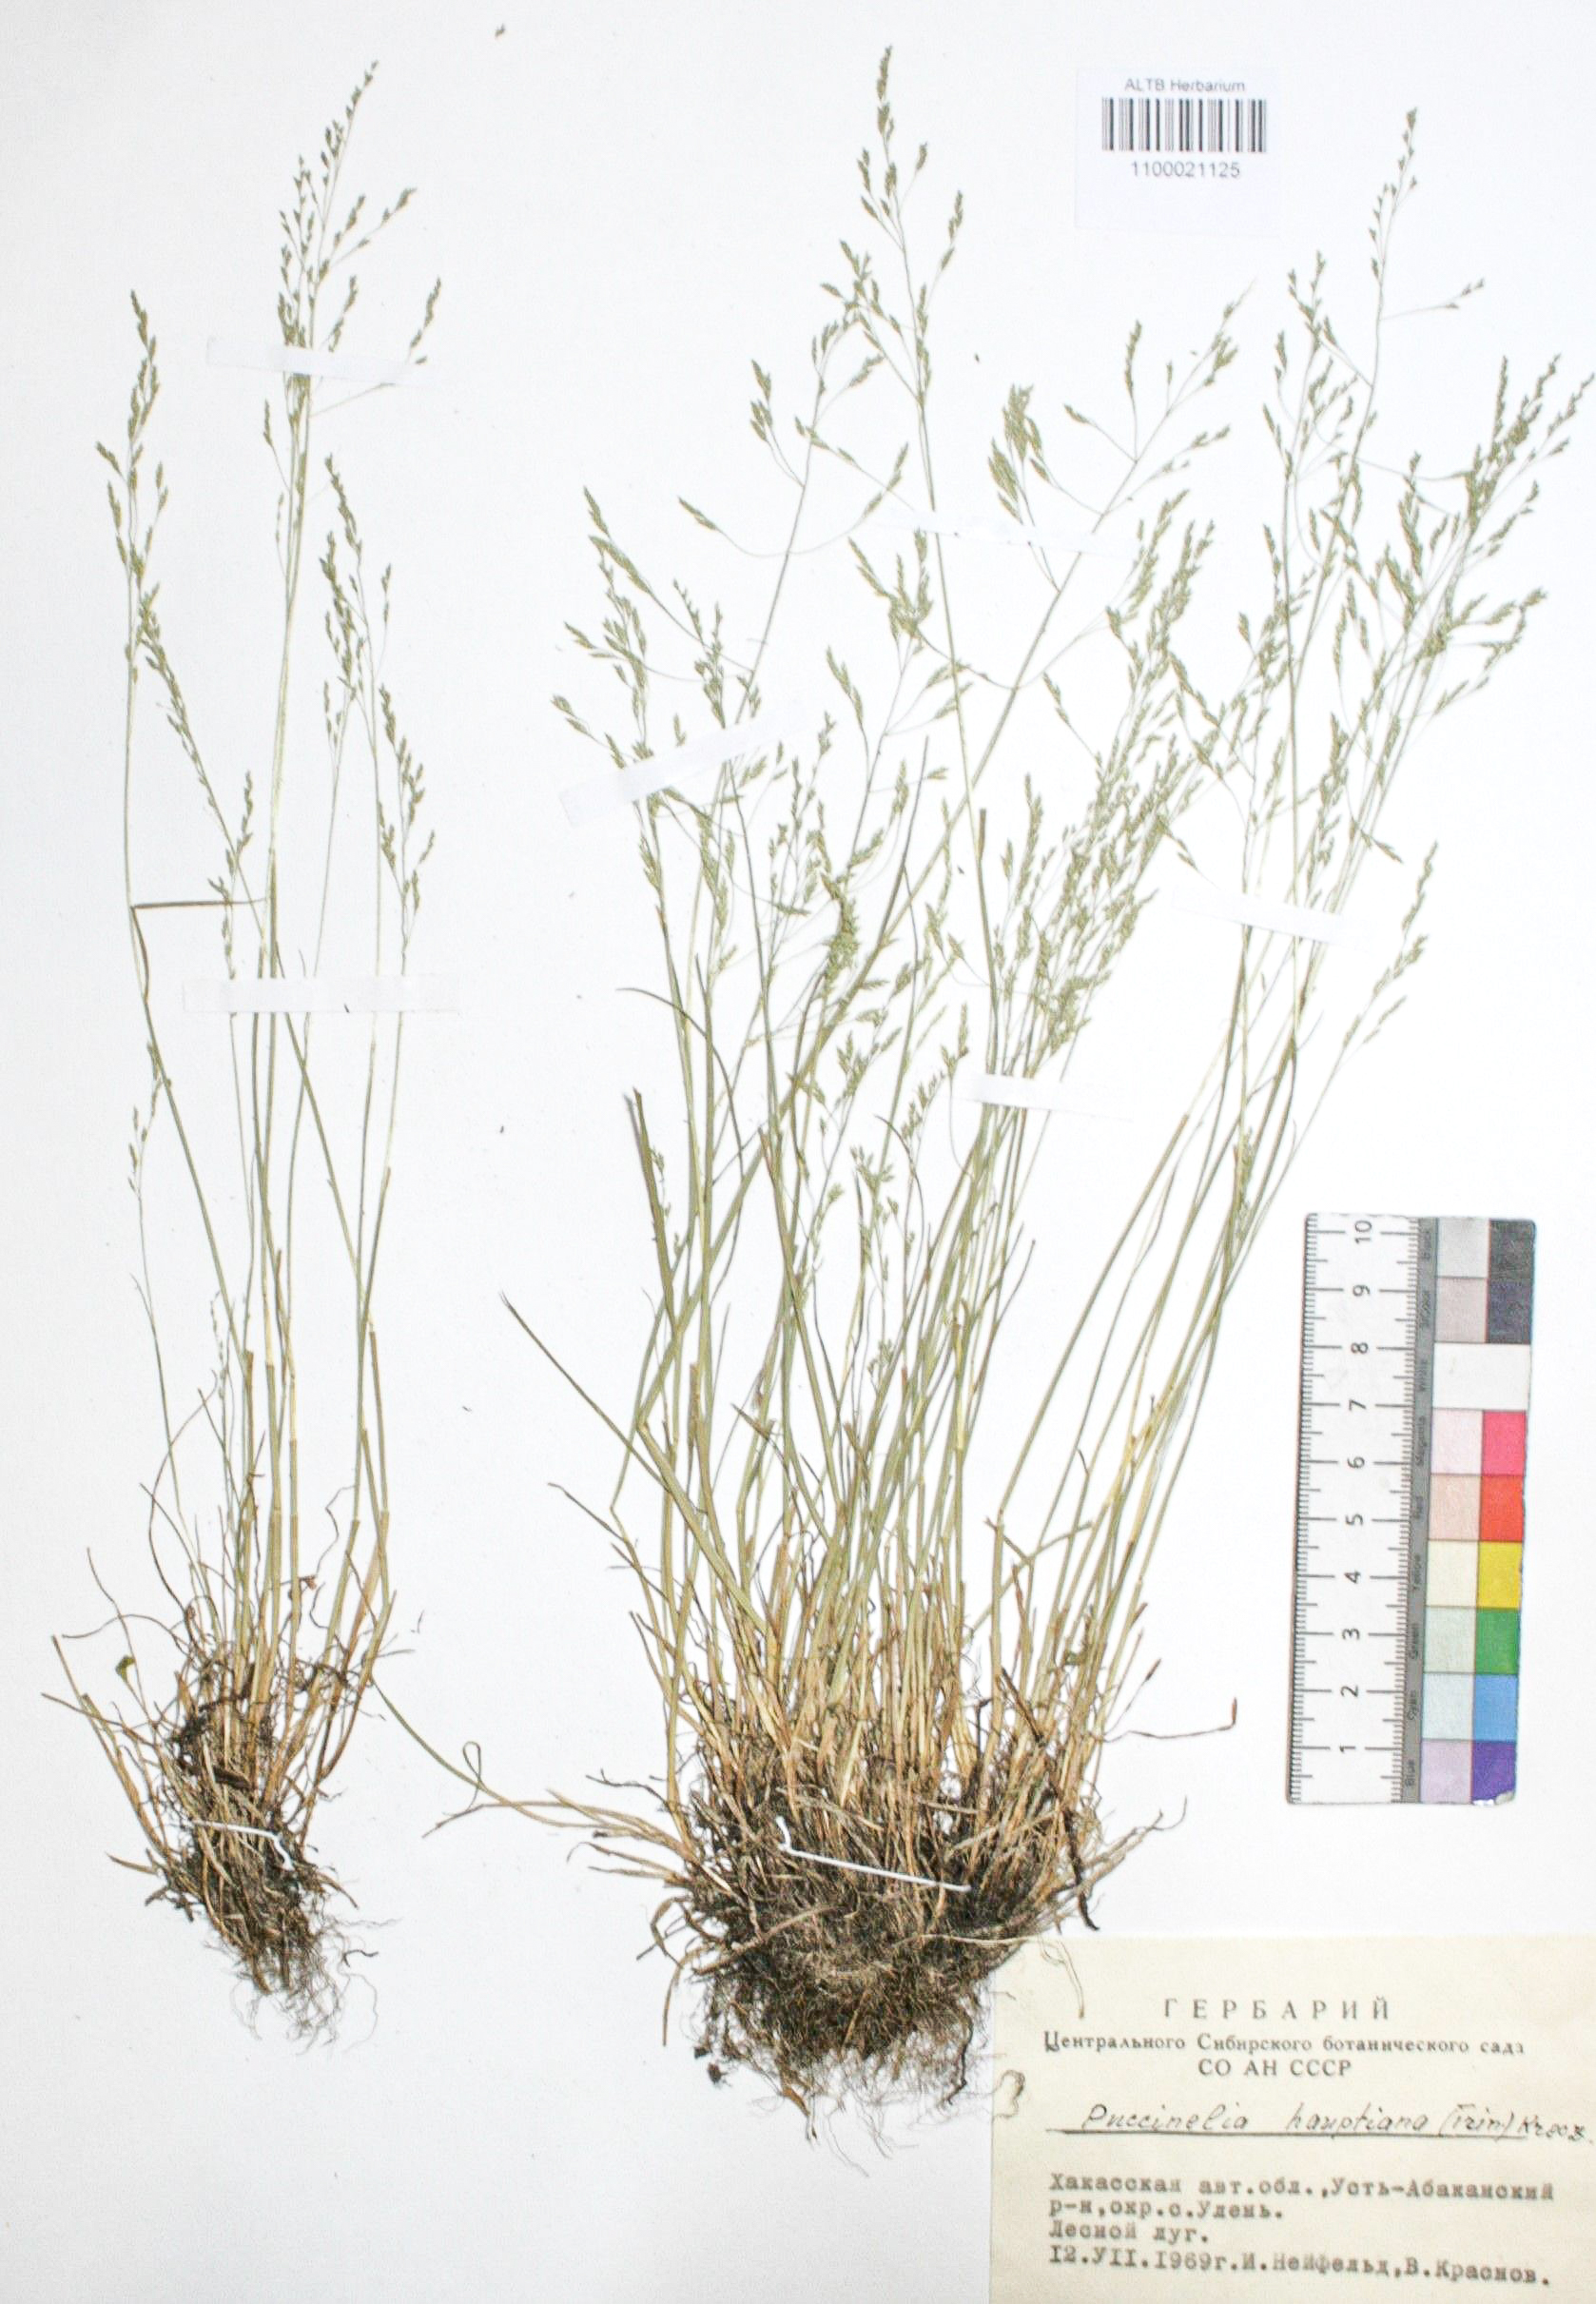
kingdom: Plantae
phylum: Tracheophyta
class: Liliopsida
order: Poales
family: Poaceae
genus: Puccinellia
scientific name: Puccinellia hauptiana
